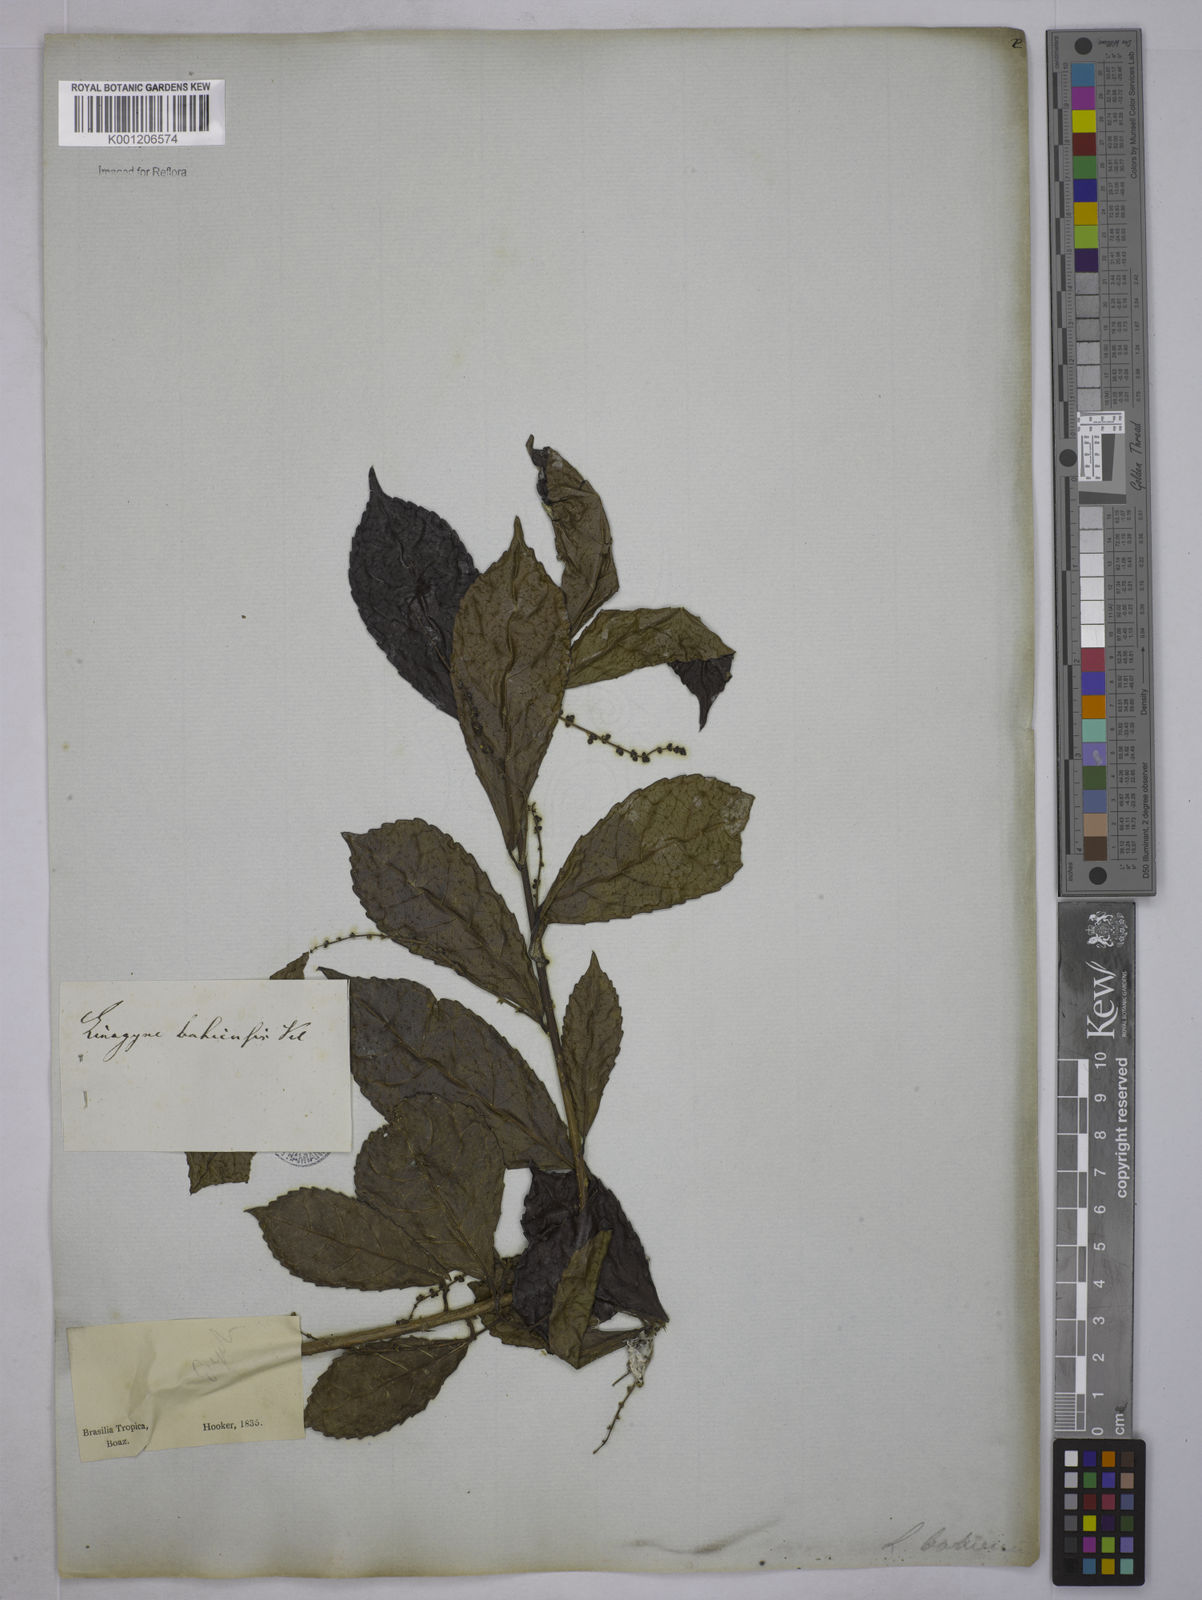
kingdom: Plantae
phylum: Tracheophyta
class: Magnoliopsida
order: Malpighiales
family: Euphorbiaceae
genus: Cleidion
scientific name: Cleidion tricoccum
